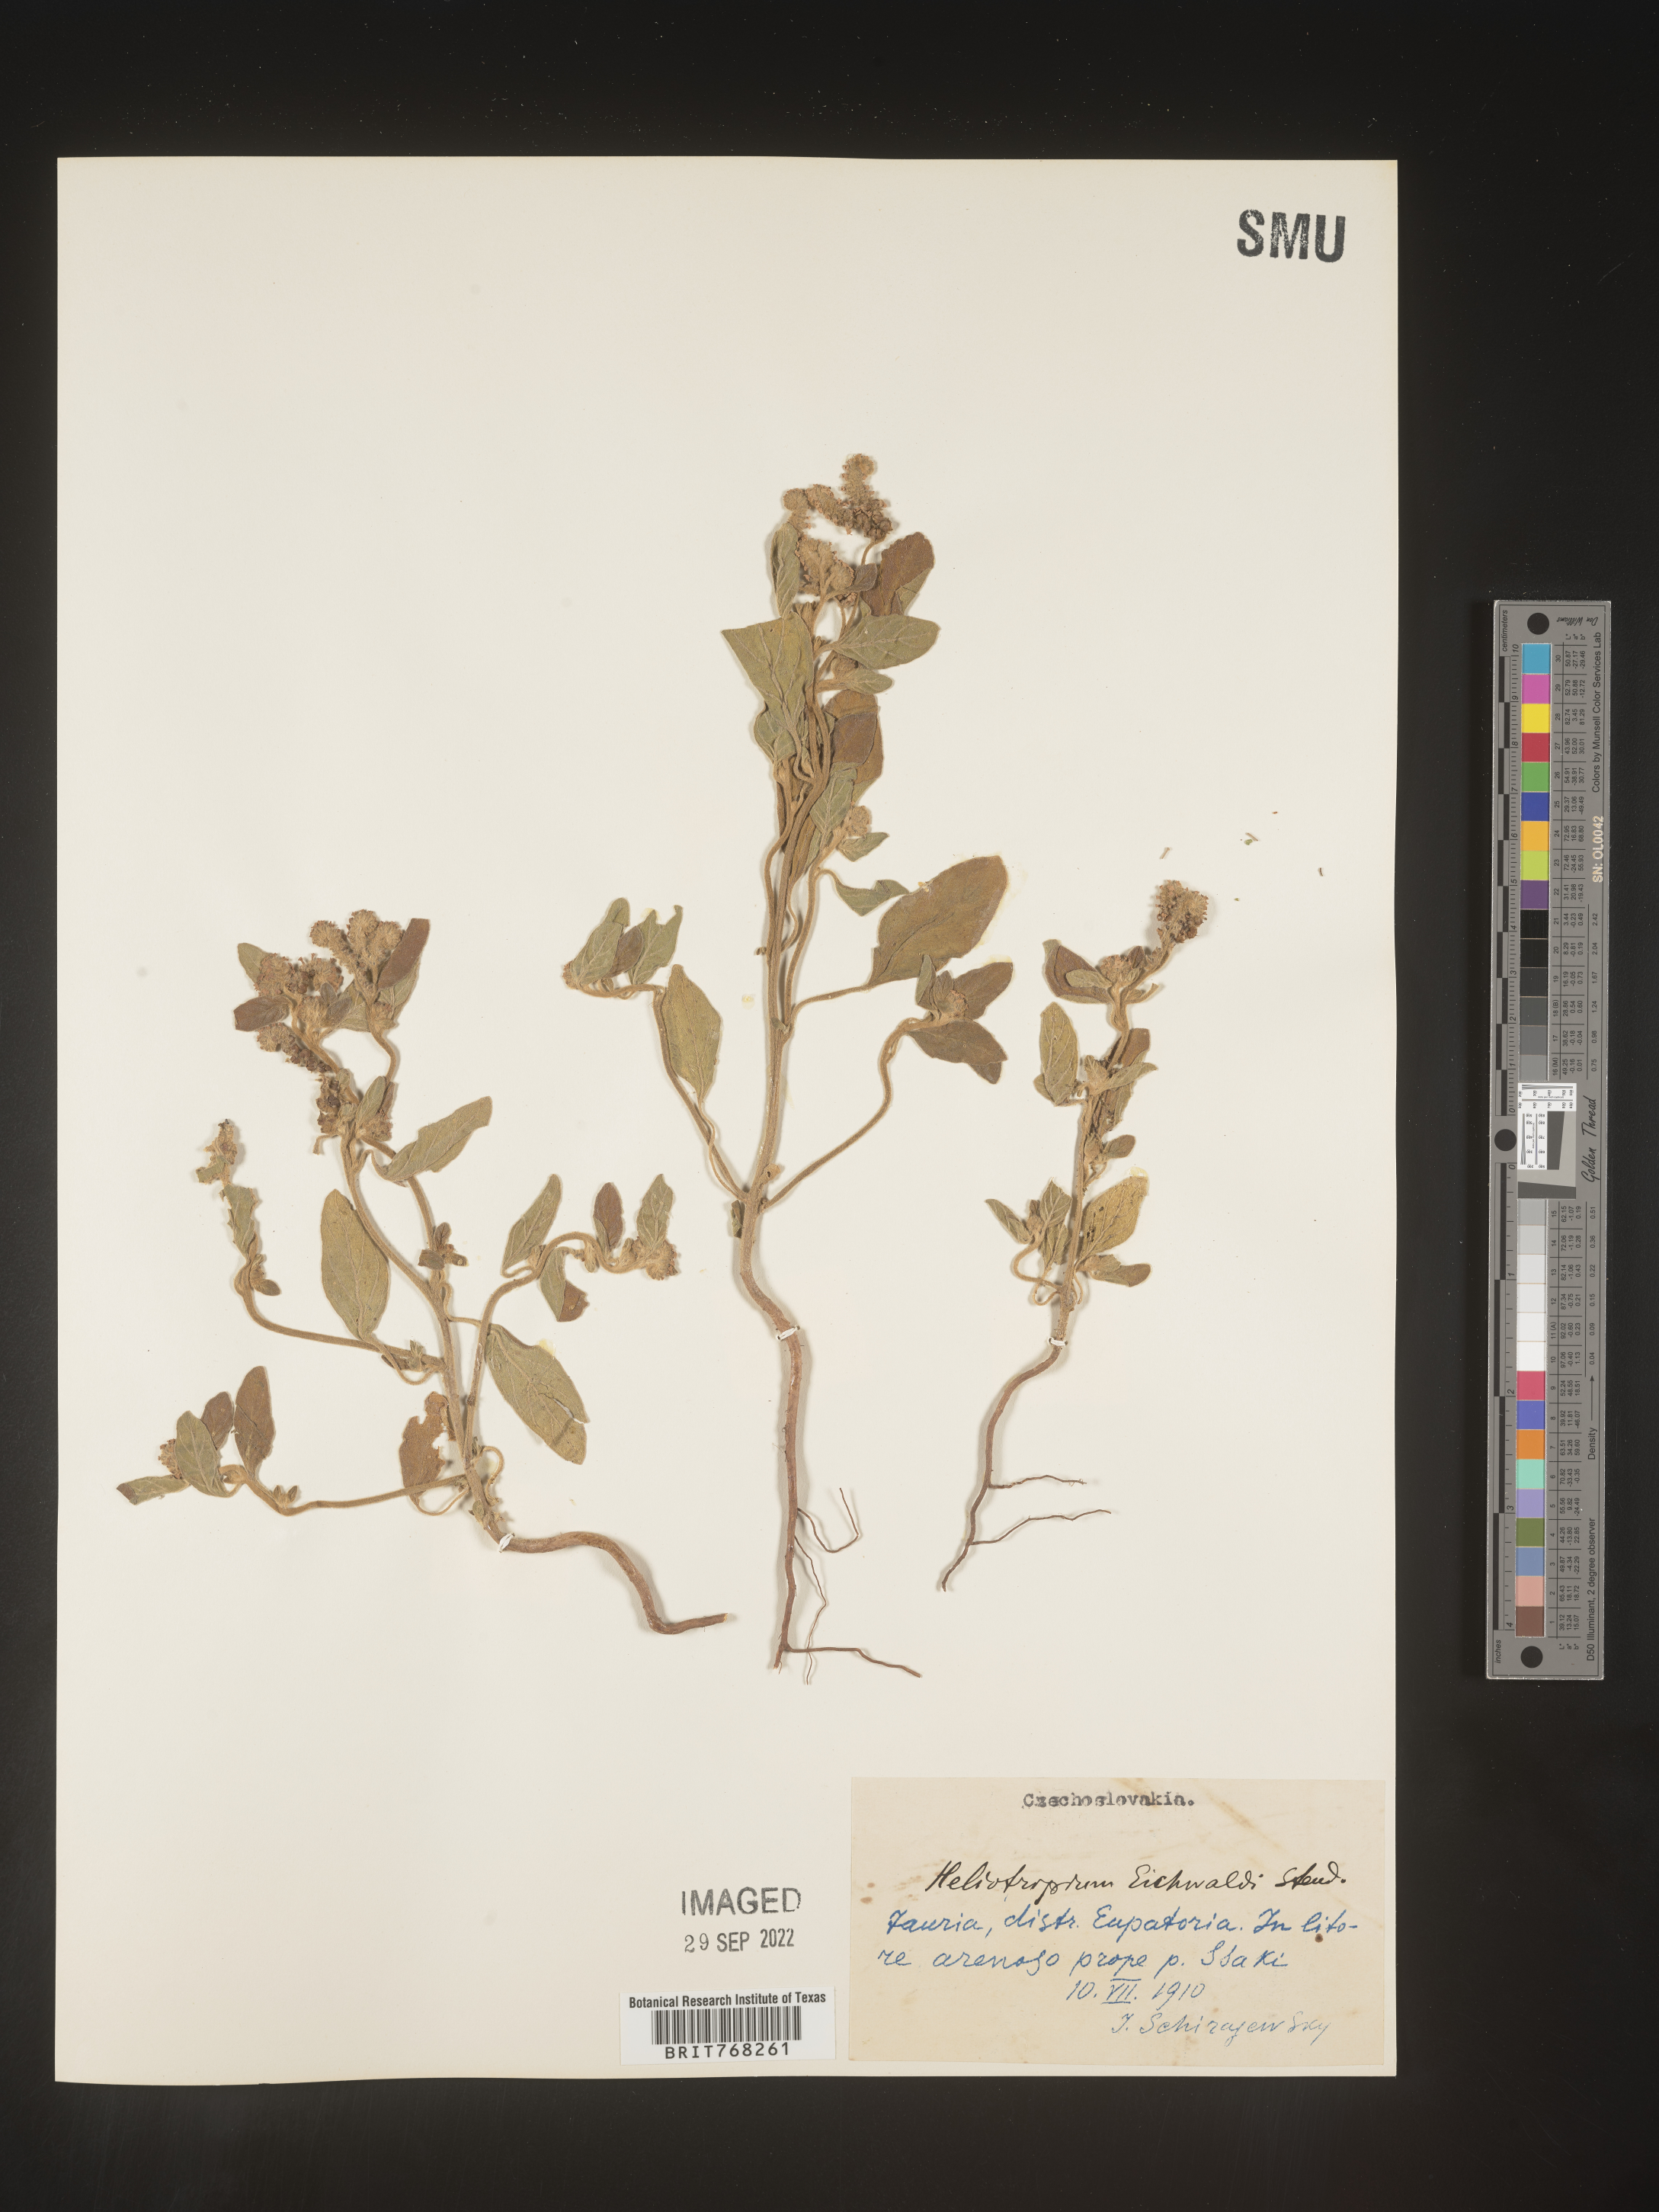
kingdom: Plantae
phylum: Tracheophyta
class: Magnoliopsida
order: Boraginales
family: Heliotropiaceae
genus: Heliotropium
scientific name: Heliotropium
